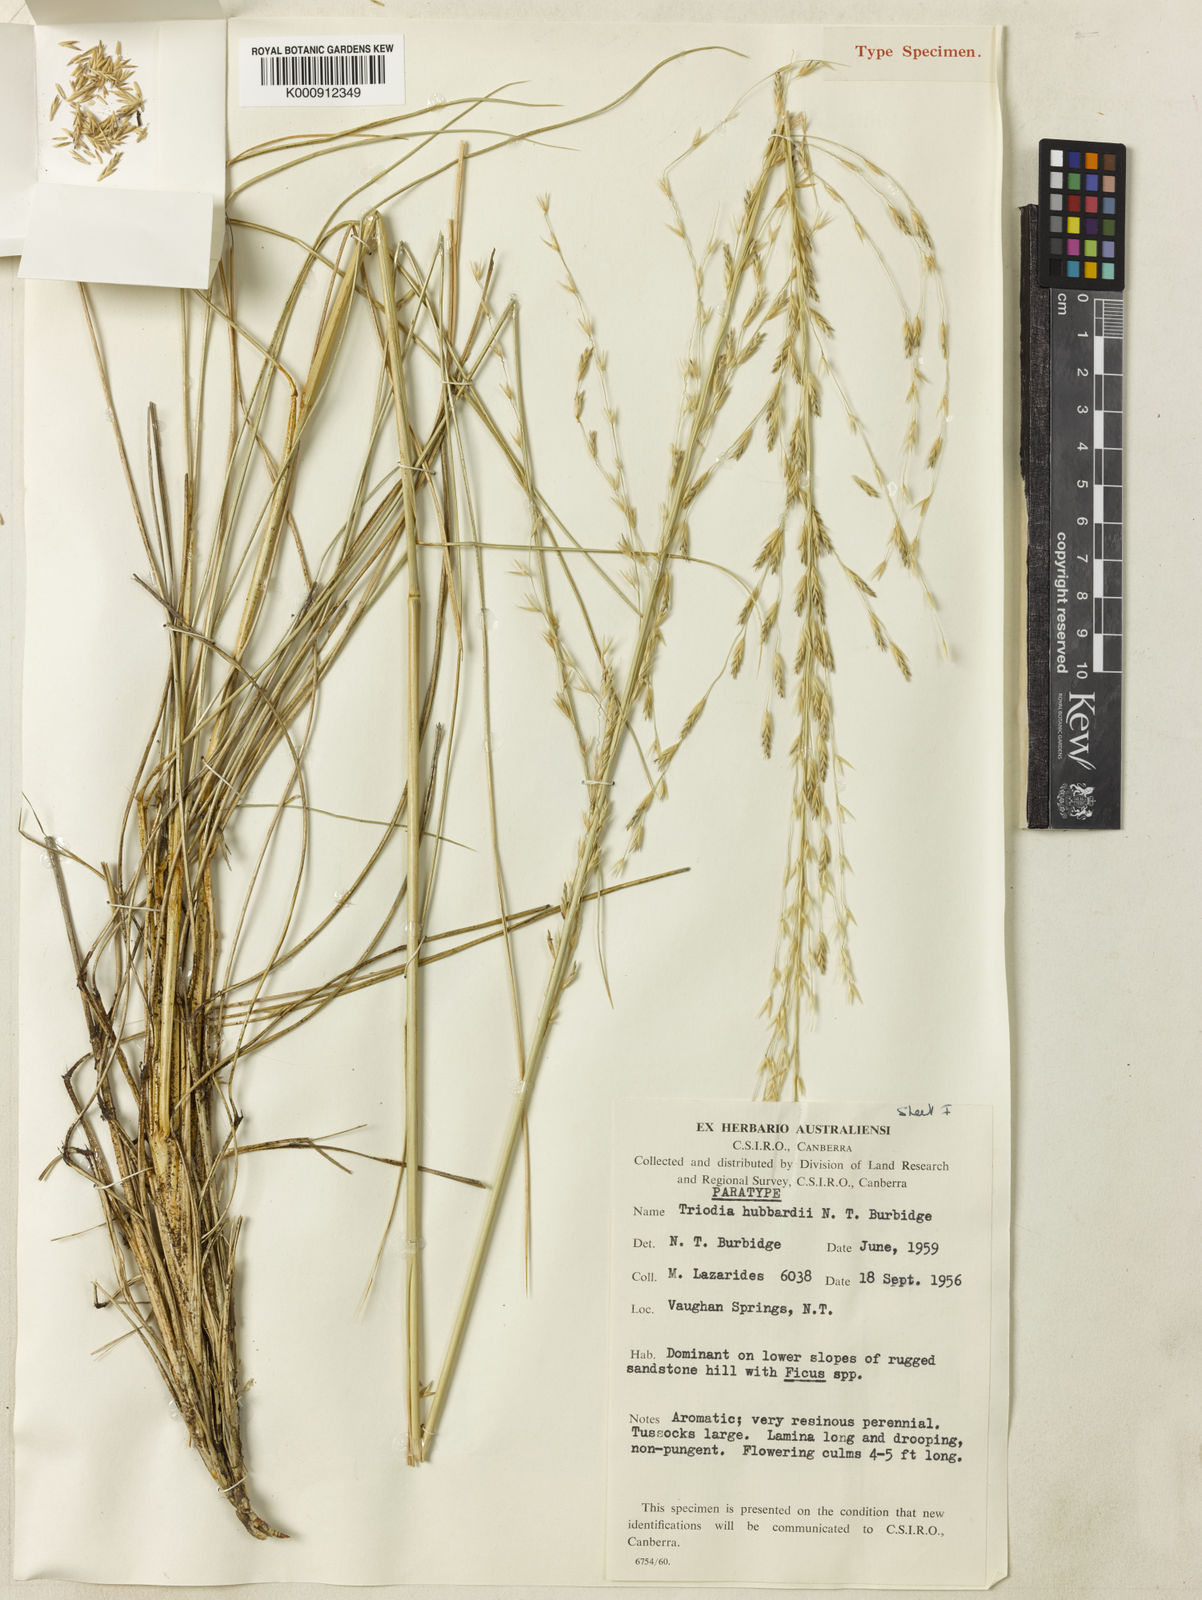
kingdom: Plantae
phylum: Tracheophyta
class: Liliopsida
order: Poales
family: Poaceae
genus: Triodia
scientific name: Triodia hubbardii
